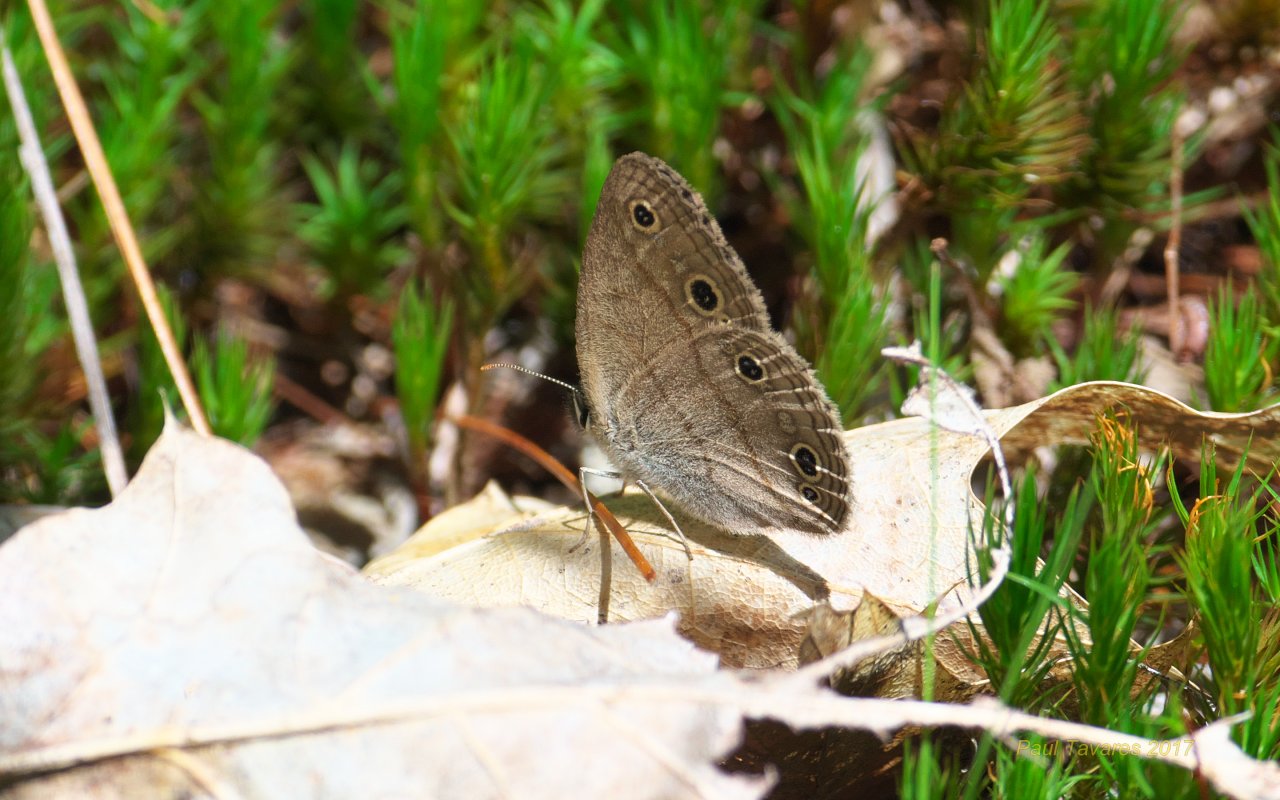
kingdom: Animalia
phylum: Arthropoda
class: Insecta
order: Lepidoptera
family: Nymphalidae
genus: Euptychia
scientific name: Euptychia cymela
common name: Little Wood Satyr
